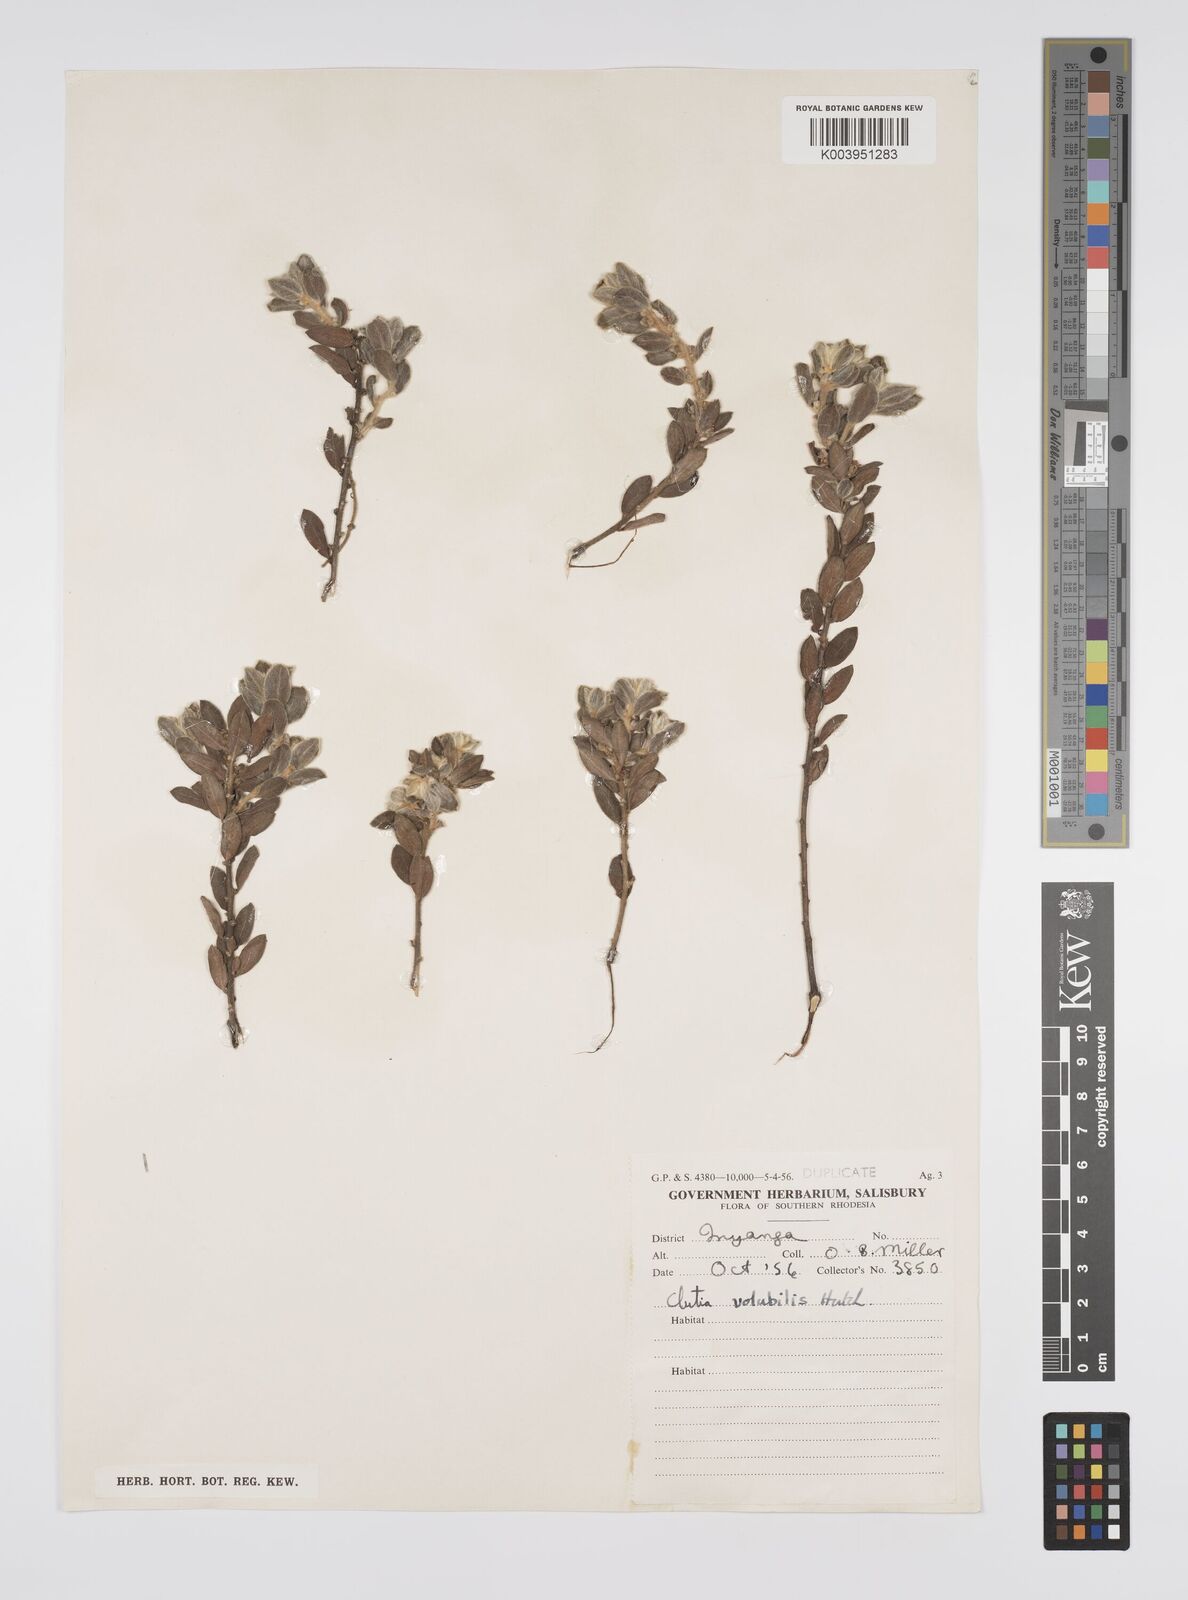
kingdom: Plantae
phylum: Tracheophyta
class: Magnoliopsida
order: Malpighiales
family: Peraceae
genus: Clutia
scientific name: Clutia
